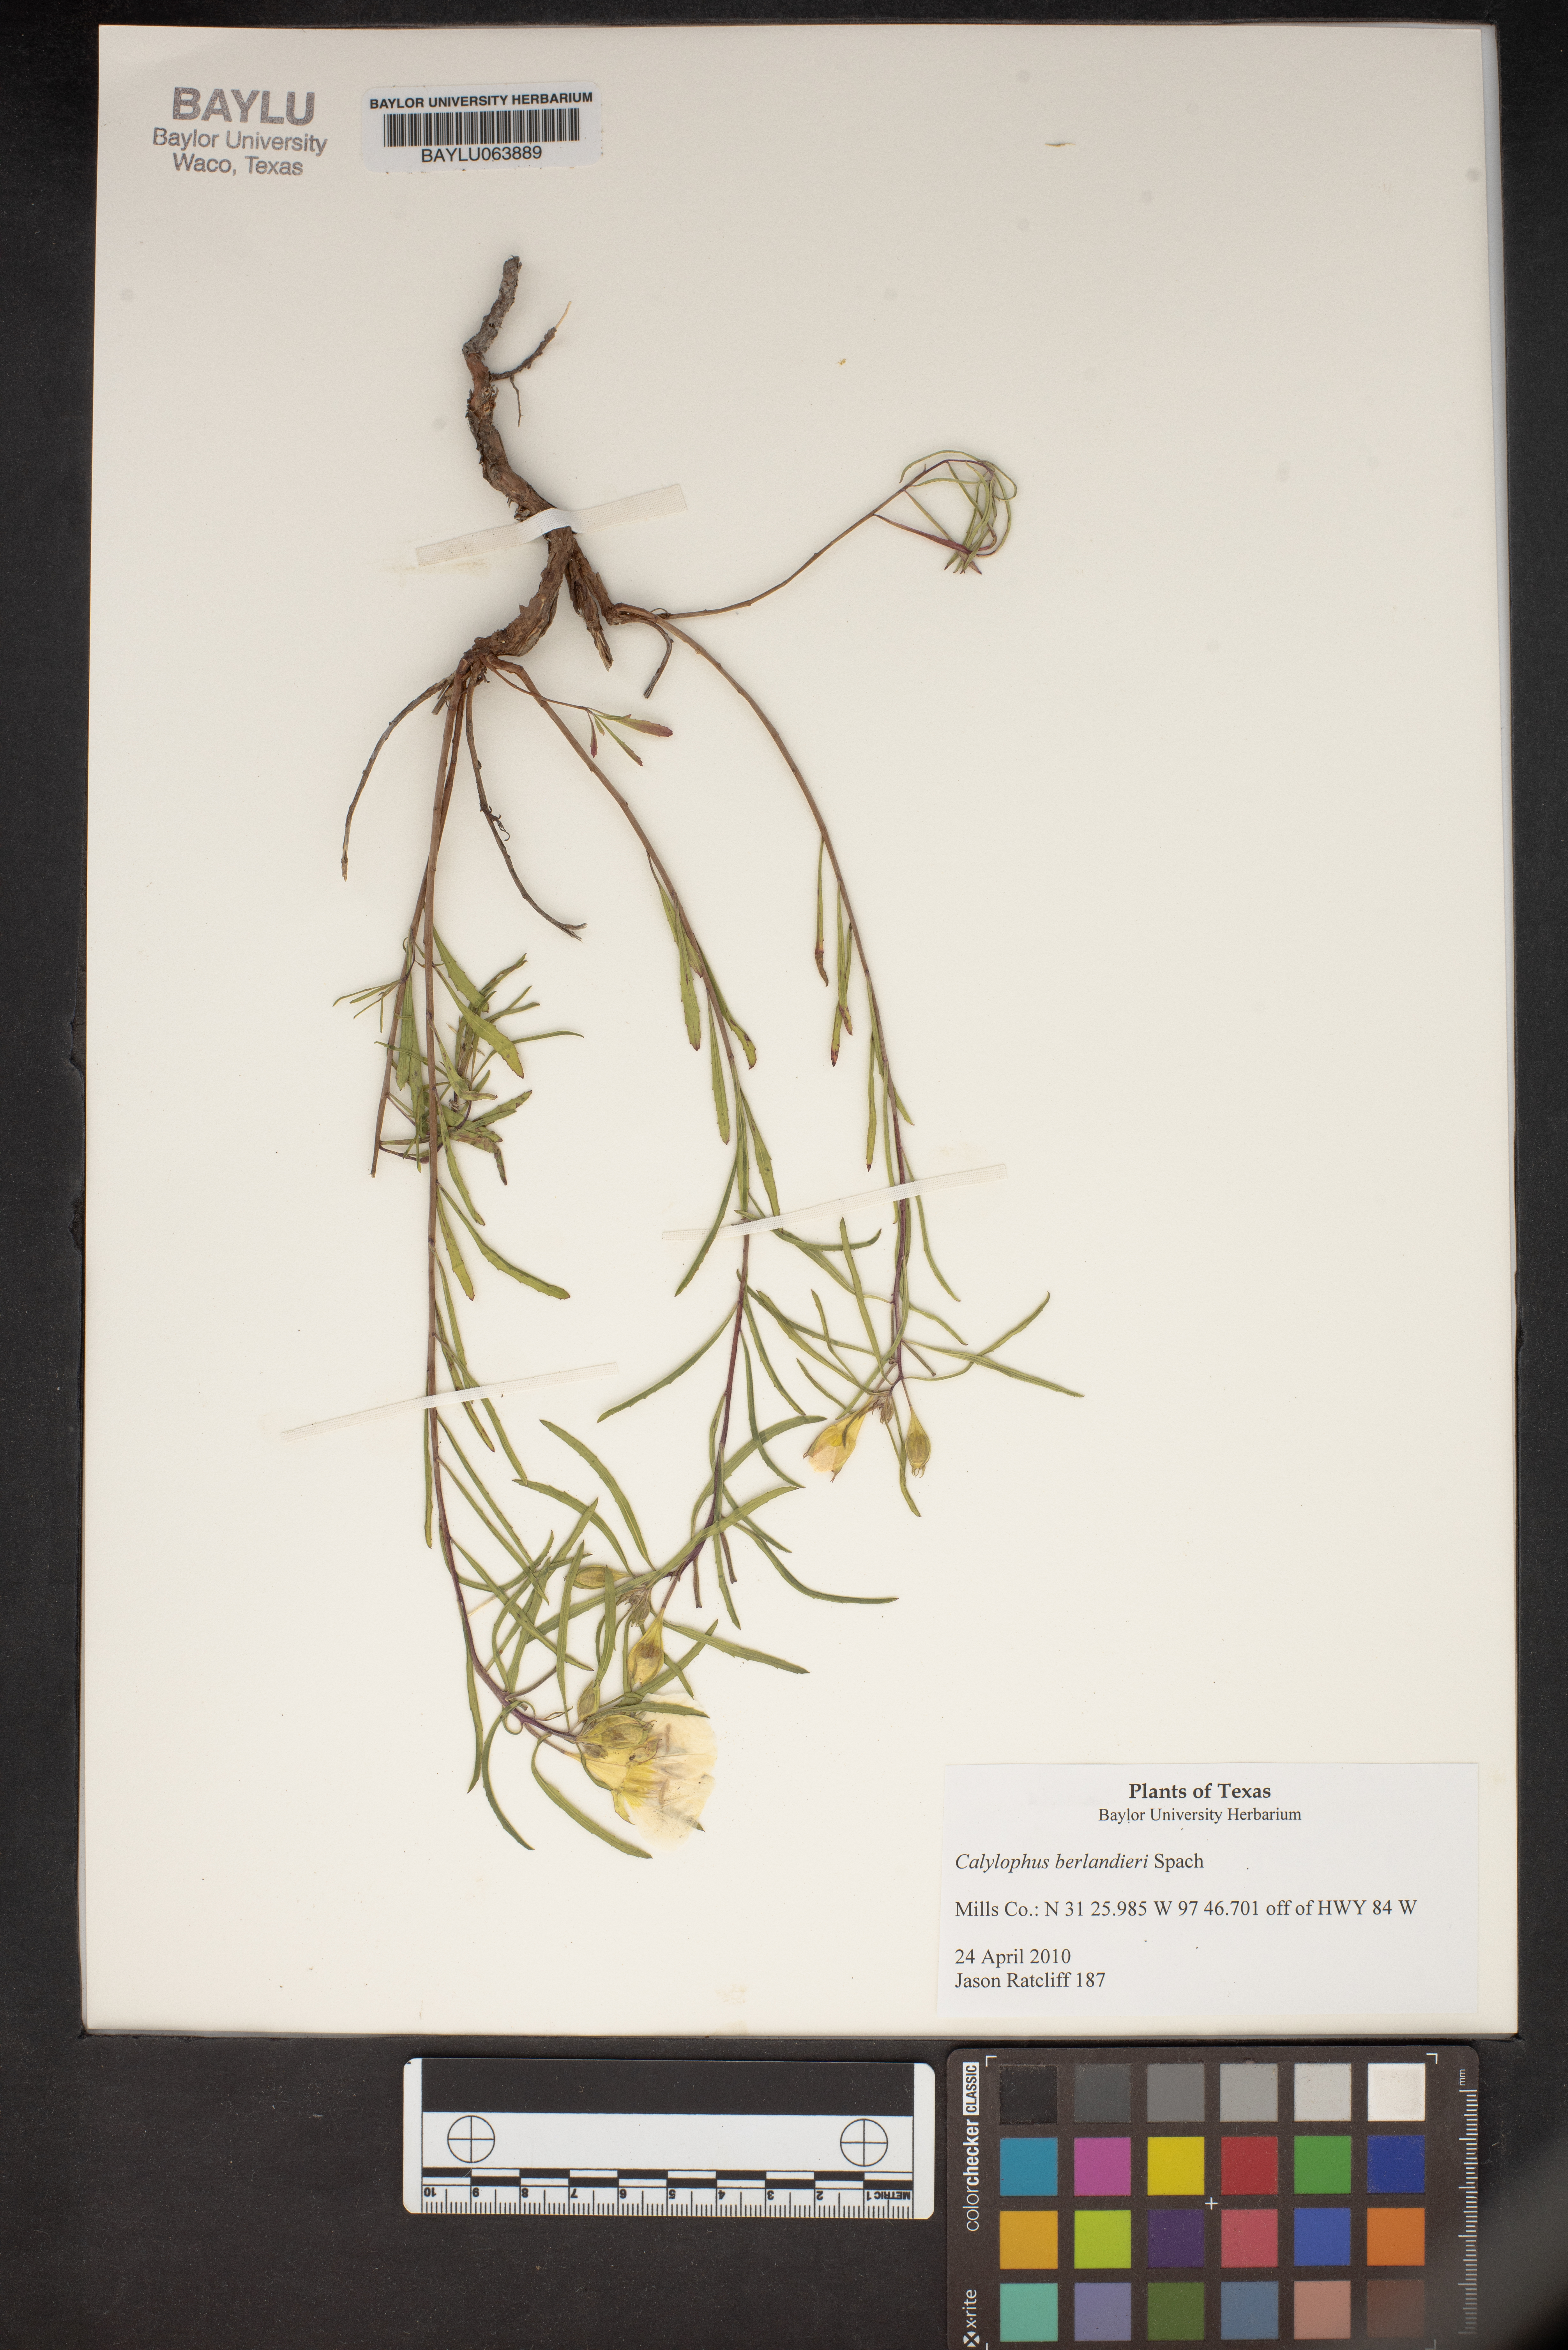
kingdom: Plantae
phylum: Tracheophyta
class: Magnoliopsida
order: Myrtales
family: Onagraceae
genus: Oenothera
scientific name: Oenothera capillifolia
